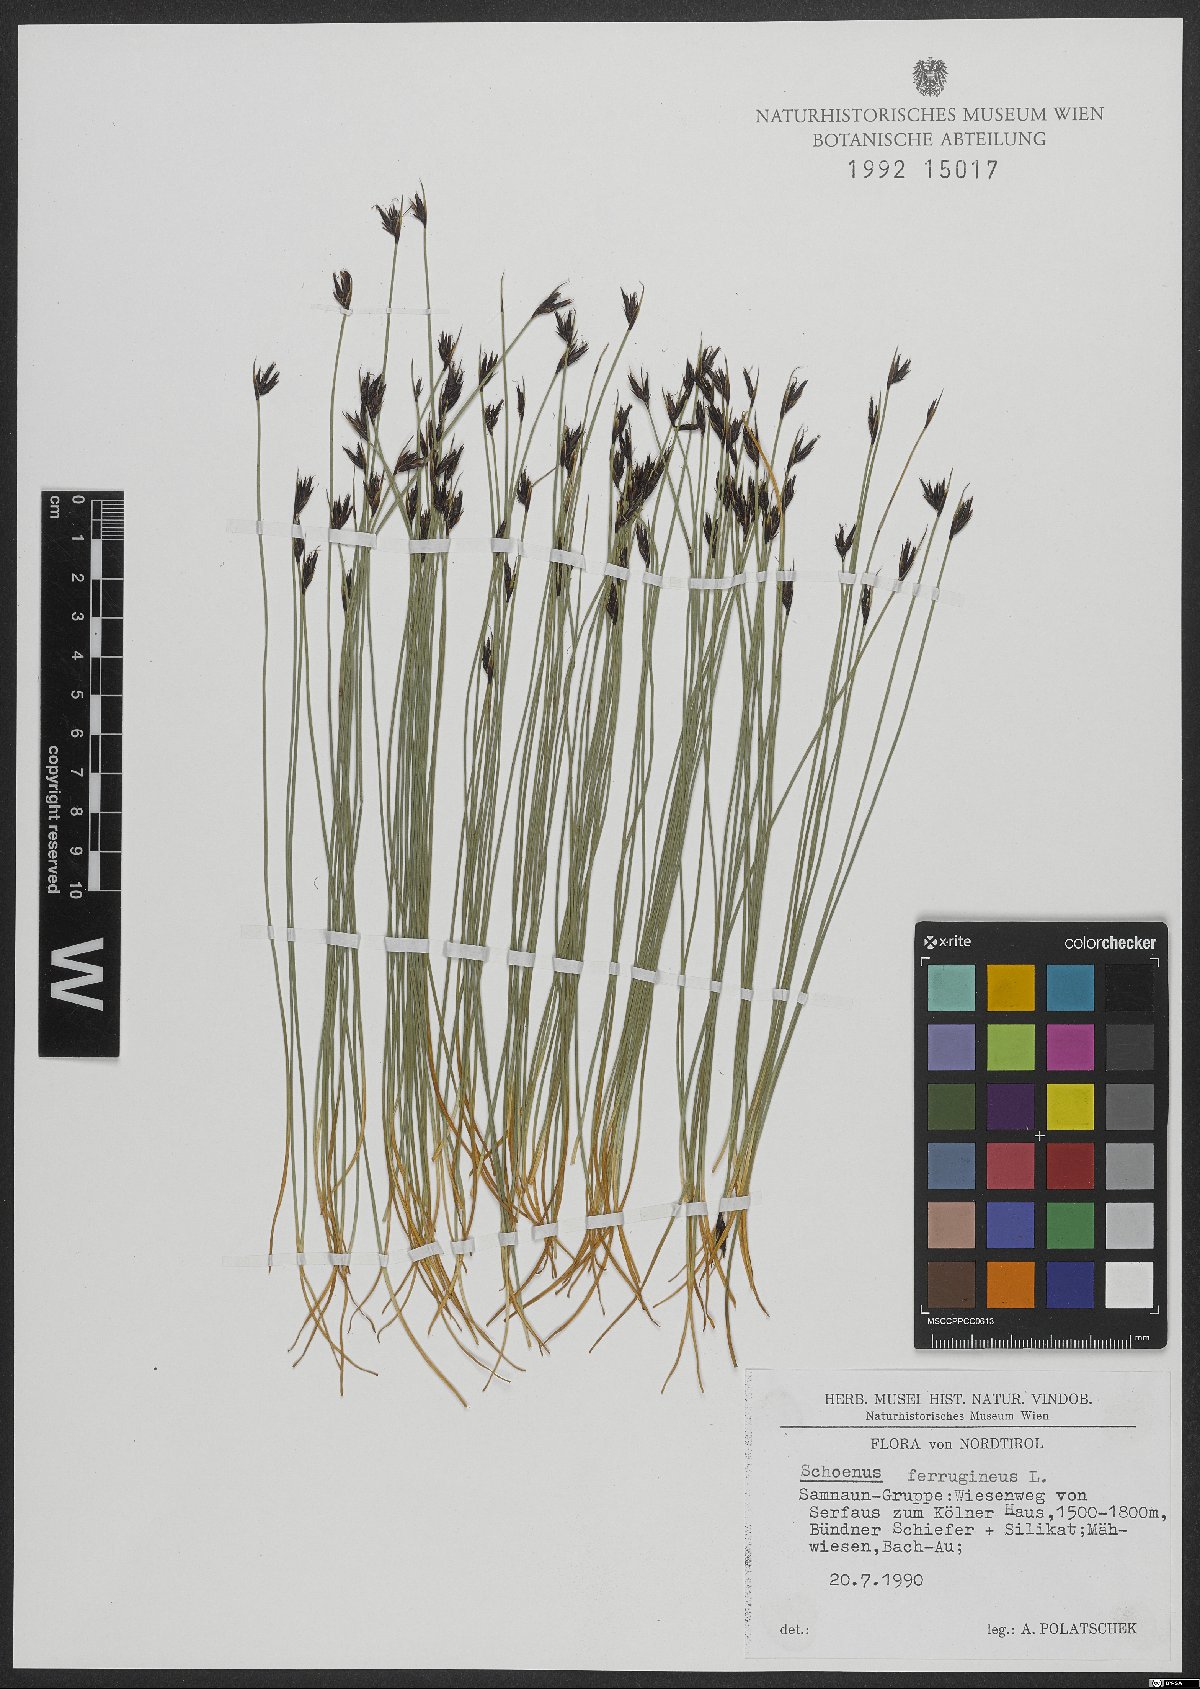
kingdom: Plantae
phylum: Tracheophyta
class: Liliopsida
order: Poales
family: Cyperaceae
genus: Schoenus
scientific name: Schoenus ferrugineus
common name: Brown bog-rush
